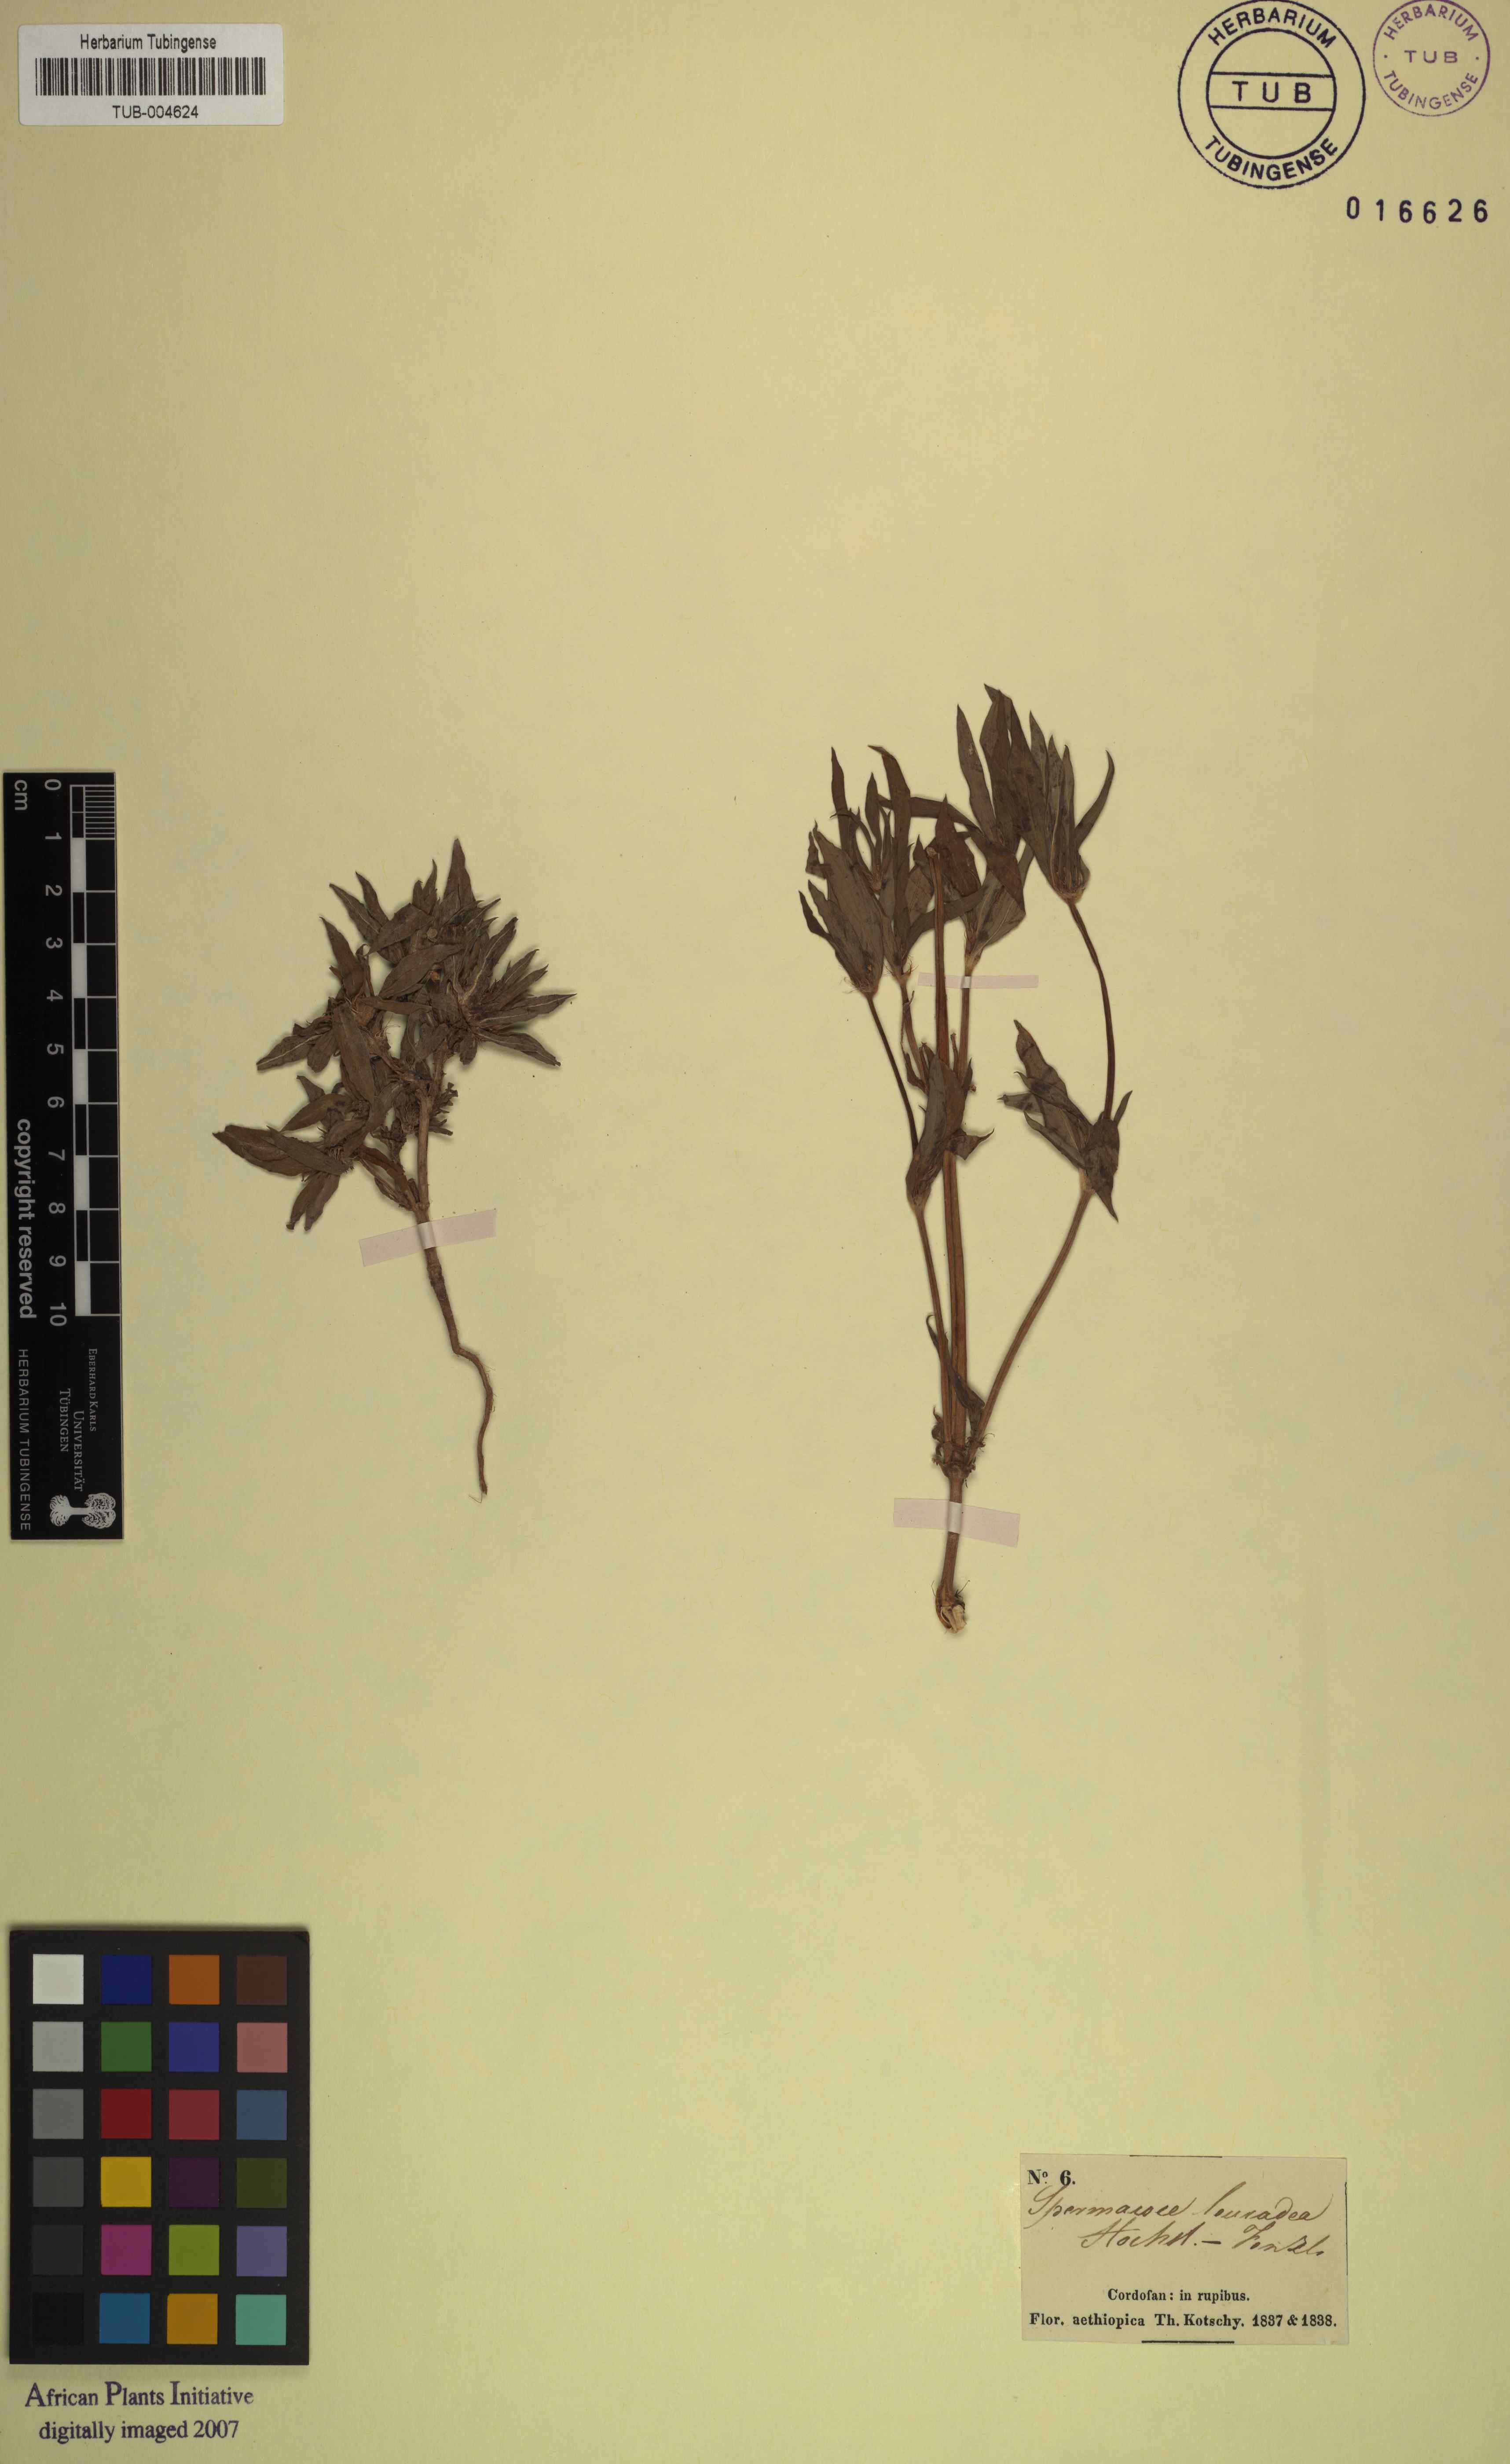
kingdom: Plantae
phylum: Tracheophyta
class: Magnoliopsida
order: Gentianales
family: Rubiaceae
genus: Spermacoce
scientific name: Spermacoce stachydea
